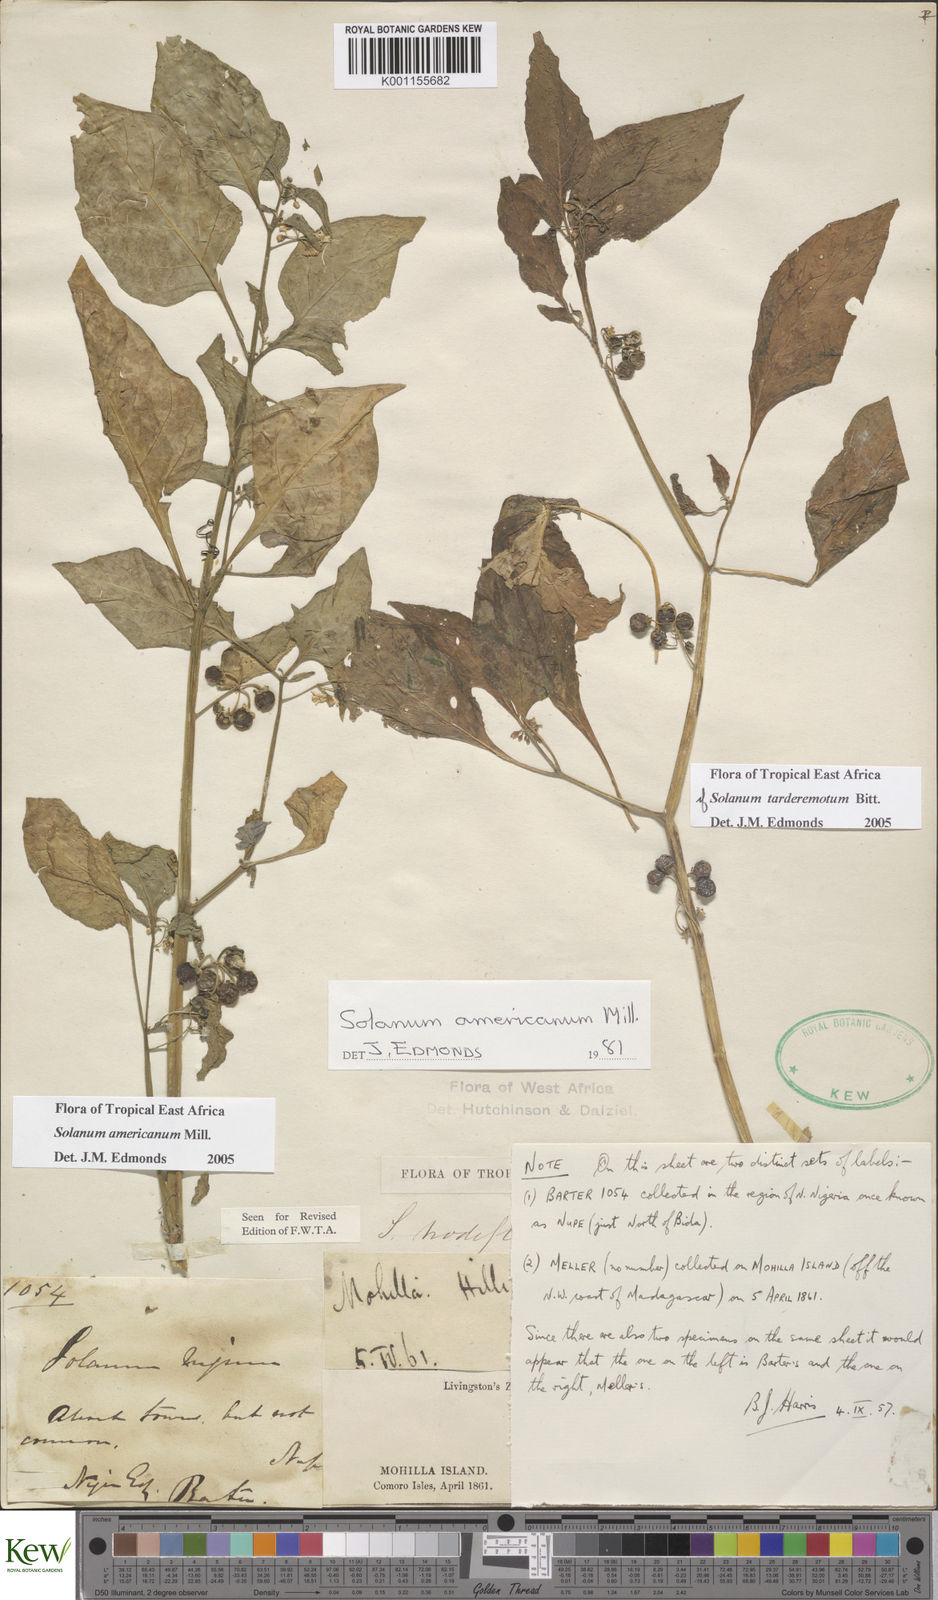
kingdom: Plantae
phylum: Tracheophyta
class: Magnoliopsida
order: Solanales
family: Solanaceae
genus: Solanum
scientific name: Solanum scabrum
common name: Garden-huckleberry
